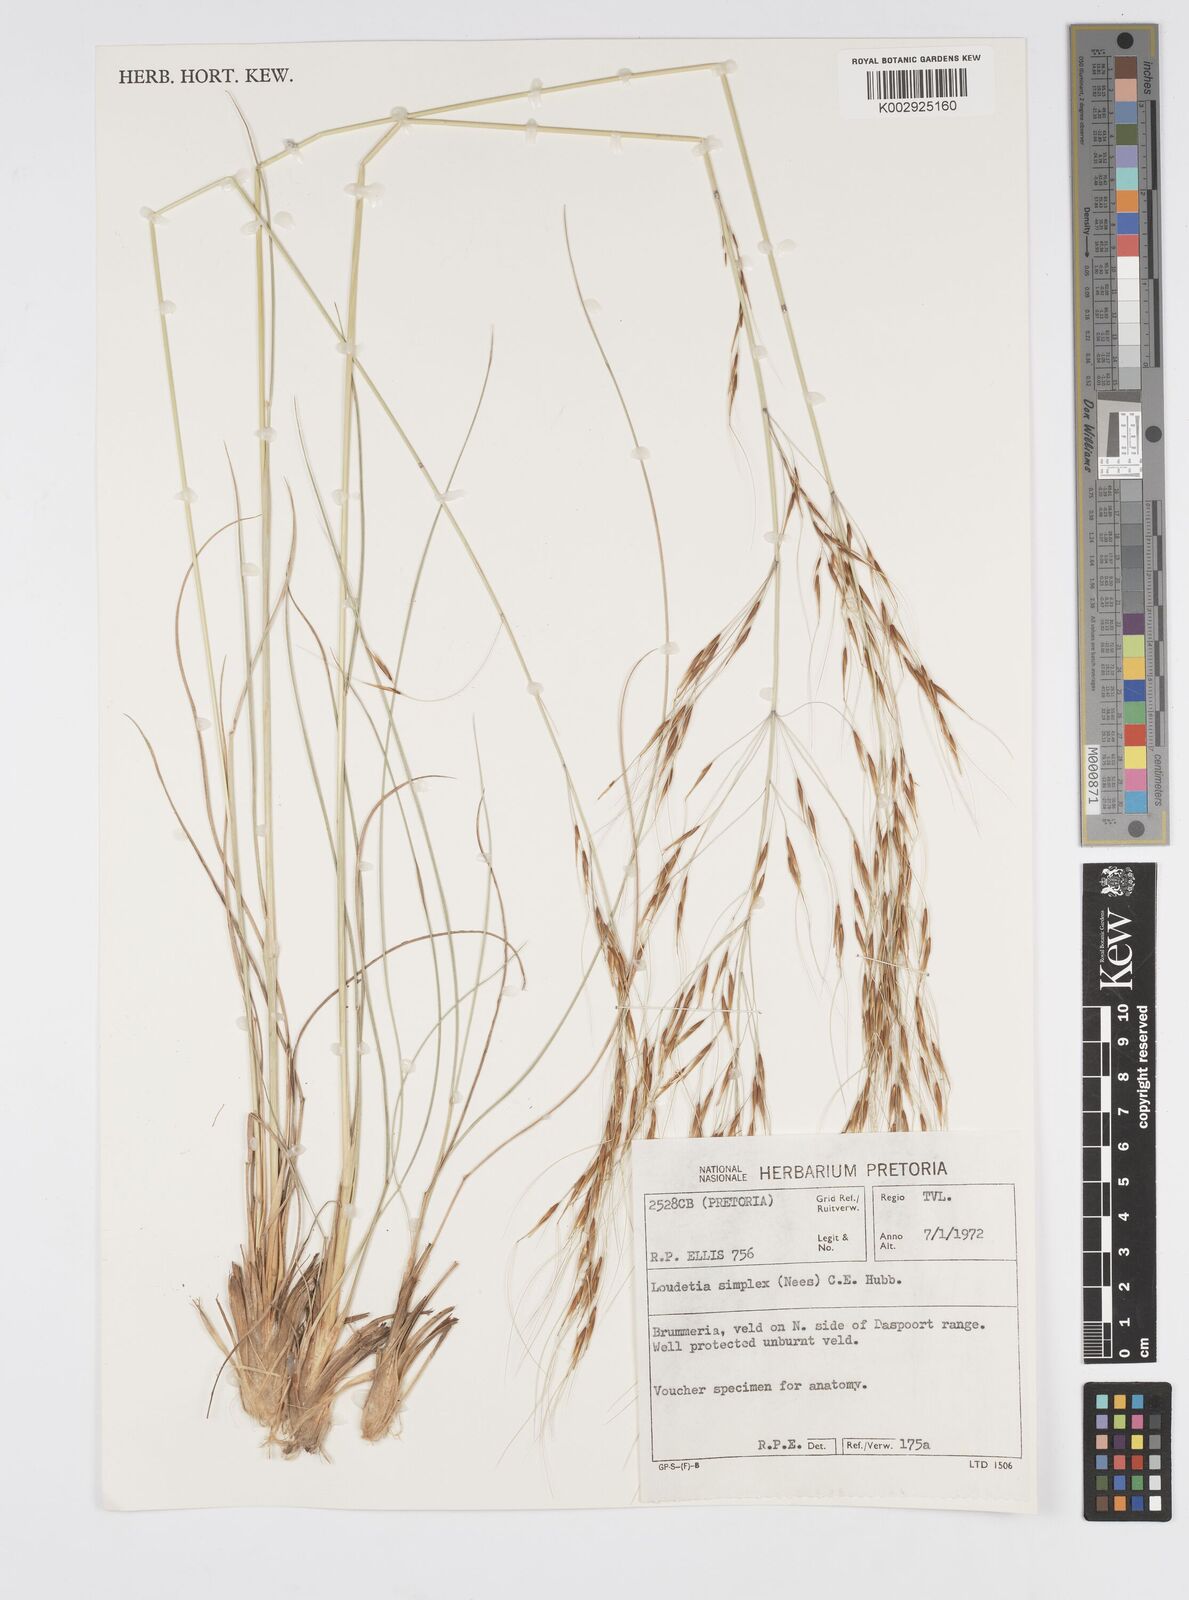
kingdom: Plantae
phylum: Tracheophyta
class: Liliopsida
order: Poales
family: Poaceae
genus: Loudetia
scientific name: Loudetia simplex
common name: Common russet grass
